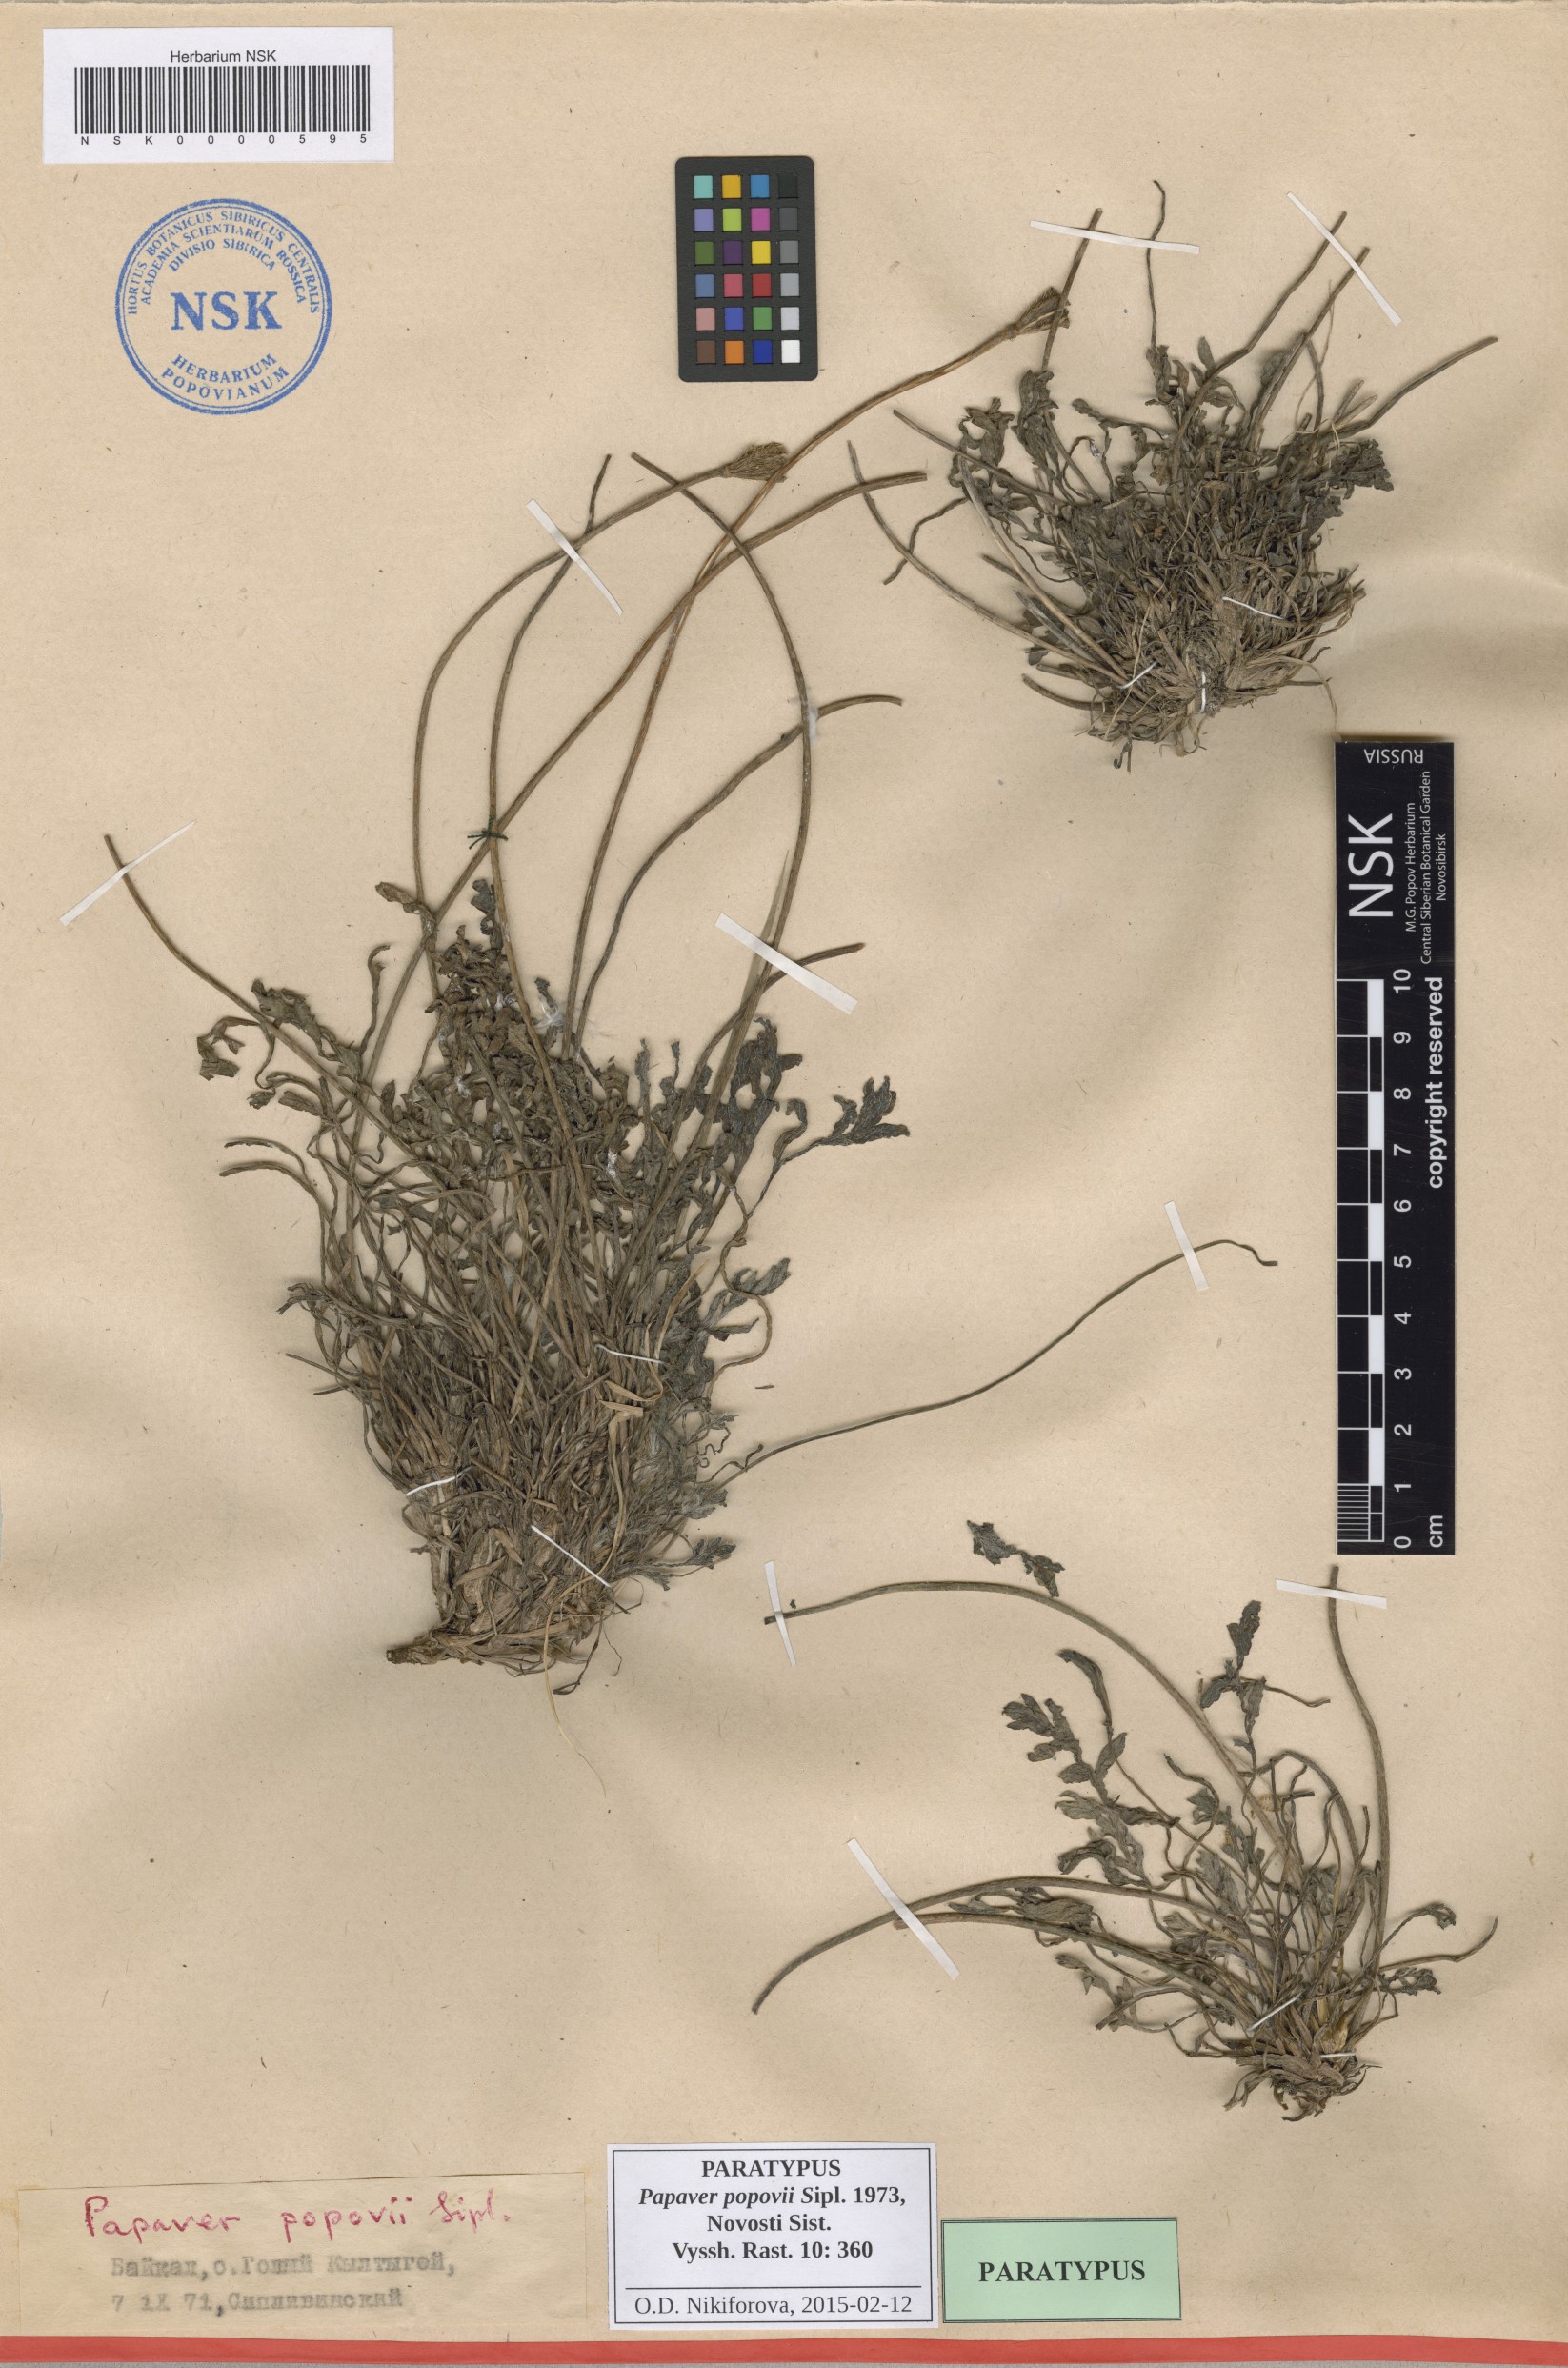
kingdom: Plantae
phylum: Tracheophyta
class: Magnoliopsida
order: Ranunculales
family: Papaveraceae
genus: Papaver
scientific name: Papaver popovii
